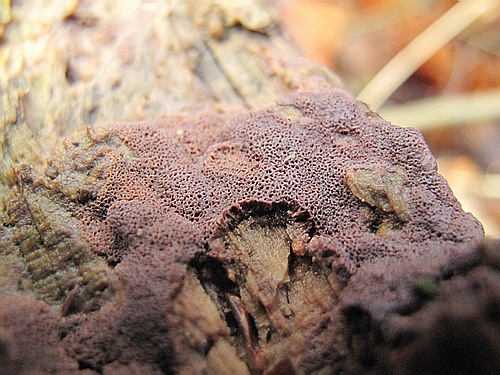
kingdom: Fungi
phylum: Basidiomycota
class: Agaricomycetes
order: Polyporales
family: Irpicaceae
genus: Ceriporia
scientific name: Ceriporia excelsa
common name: lilla voksporesvamp
